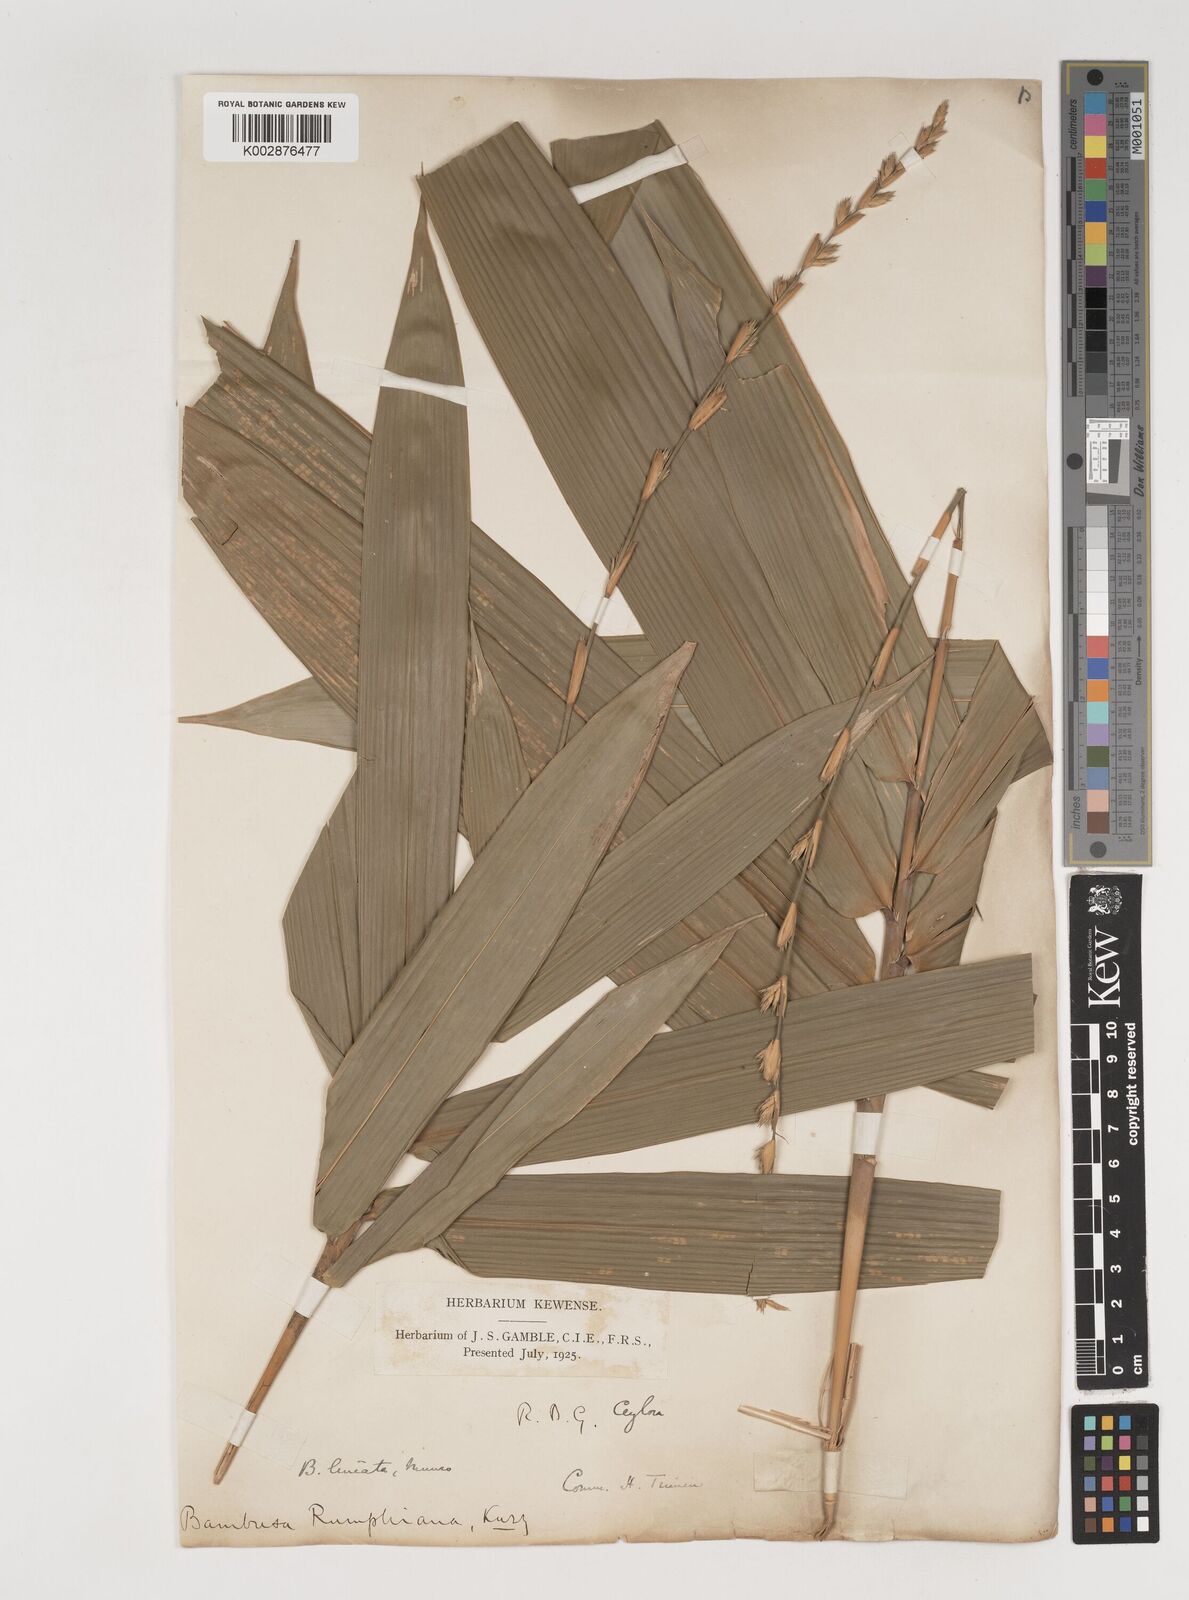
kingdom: Plantae
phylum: Tracheophyta
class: Liliopsida
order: Poales
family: Poaceae
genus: Neololeba
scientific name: Neololeba amahussana
